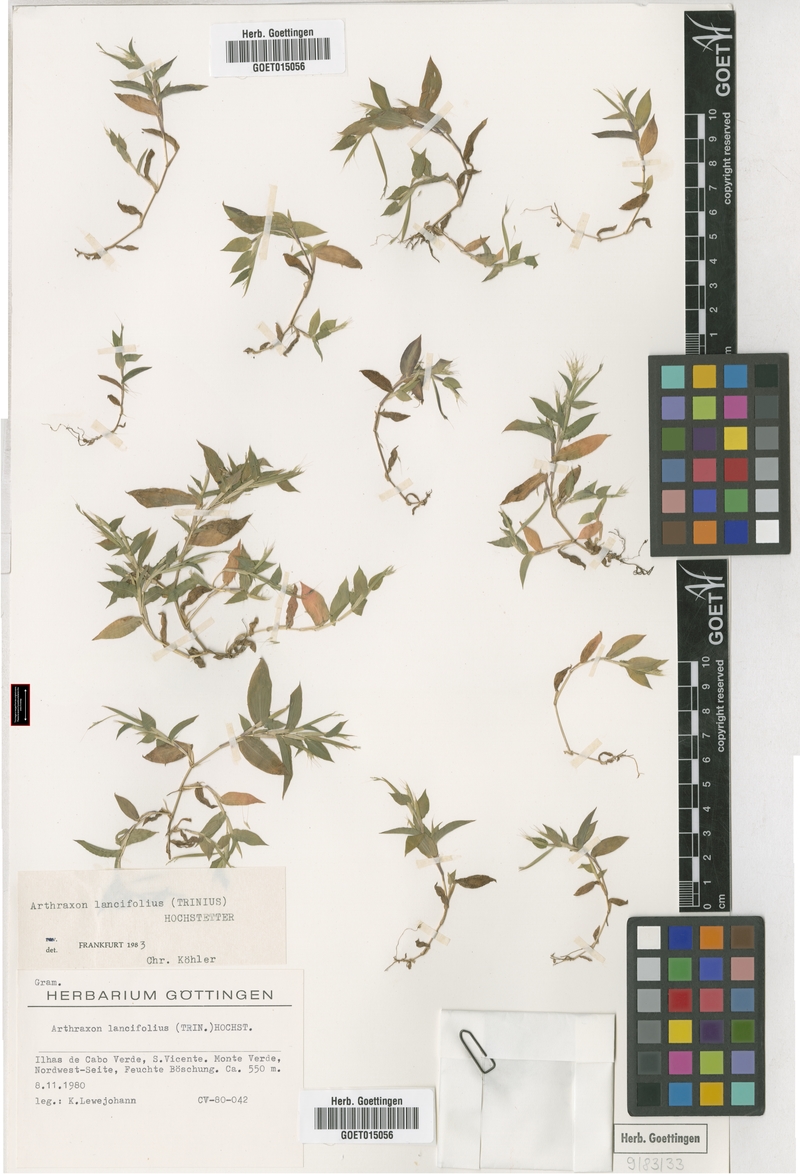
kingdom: Plantae
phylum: Tracheophyta
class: Liliopsida
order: Poales
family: Poaceae
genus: Arthraxon
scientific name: Arthraxon lancifolius
